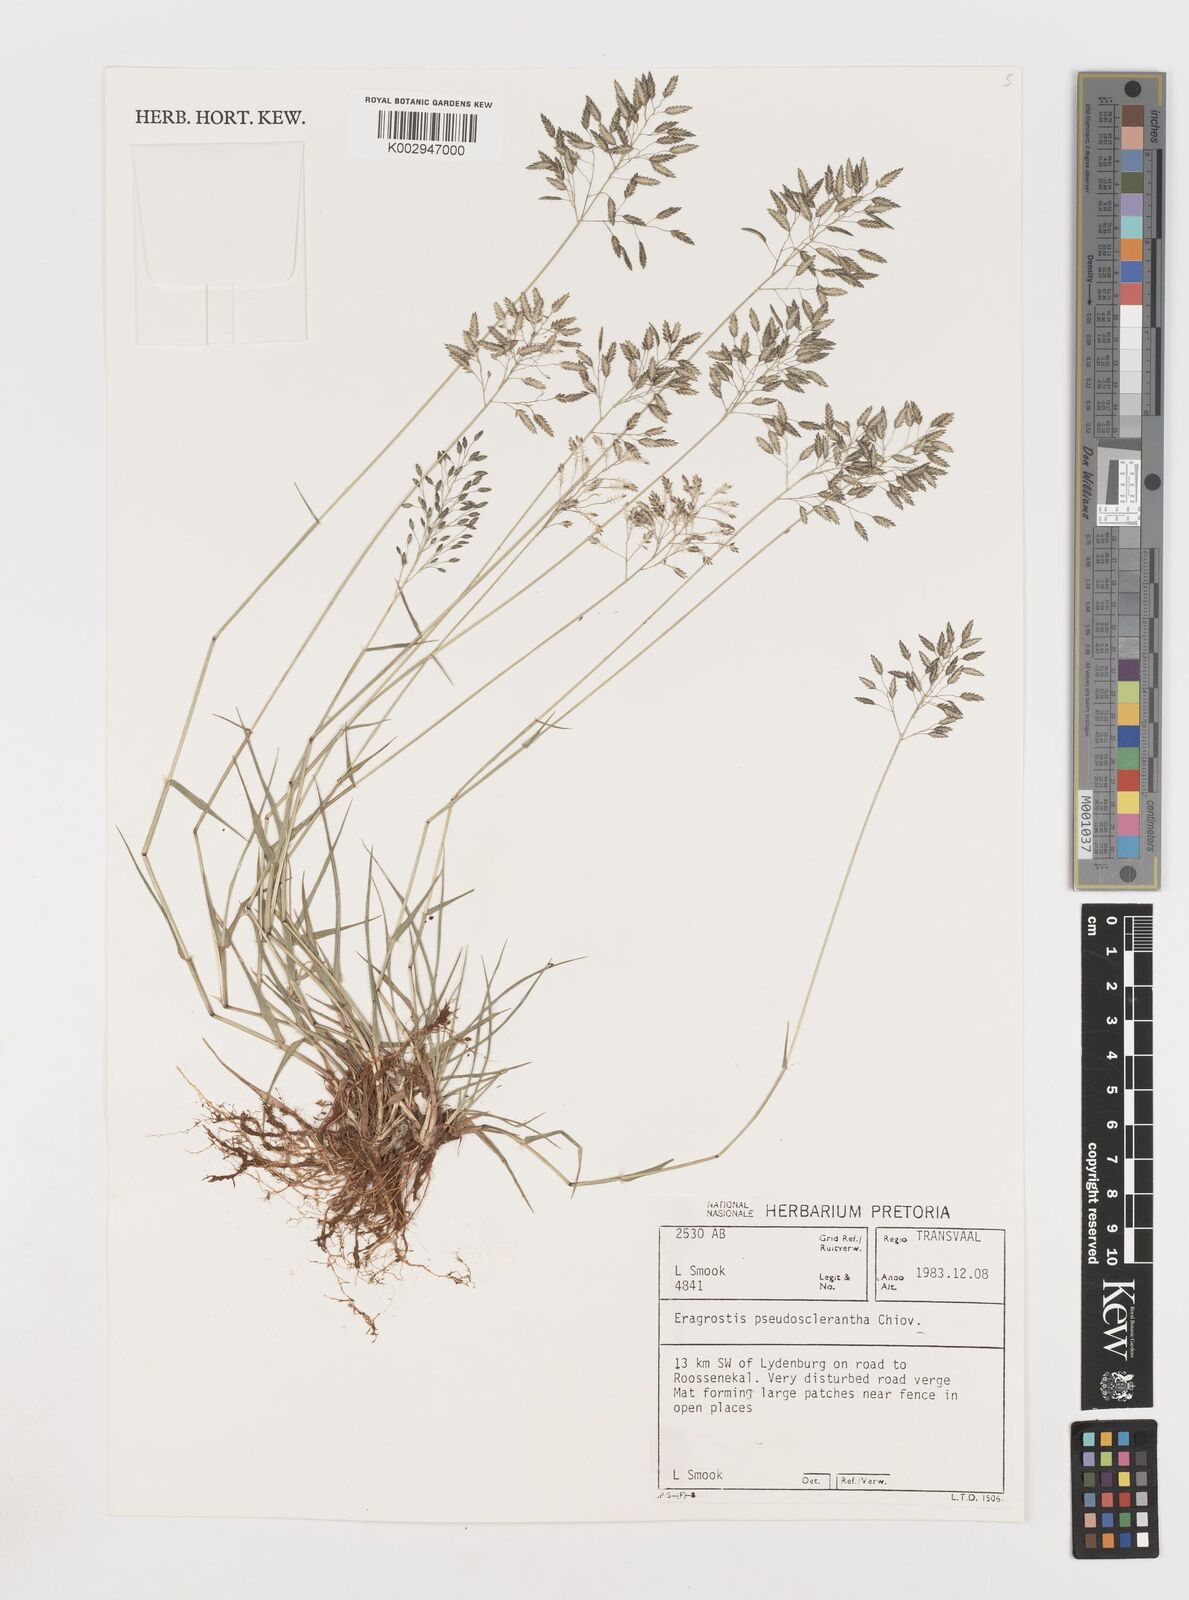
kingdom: Plantae
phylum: Tracheophyta
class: Liliopsida
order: Poales
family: Poaceae
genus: Eragrostis
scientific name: Eragrostis patentipilosa
